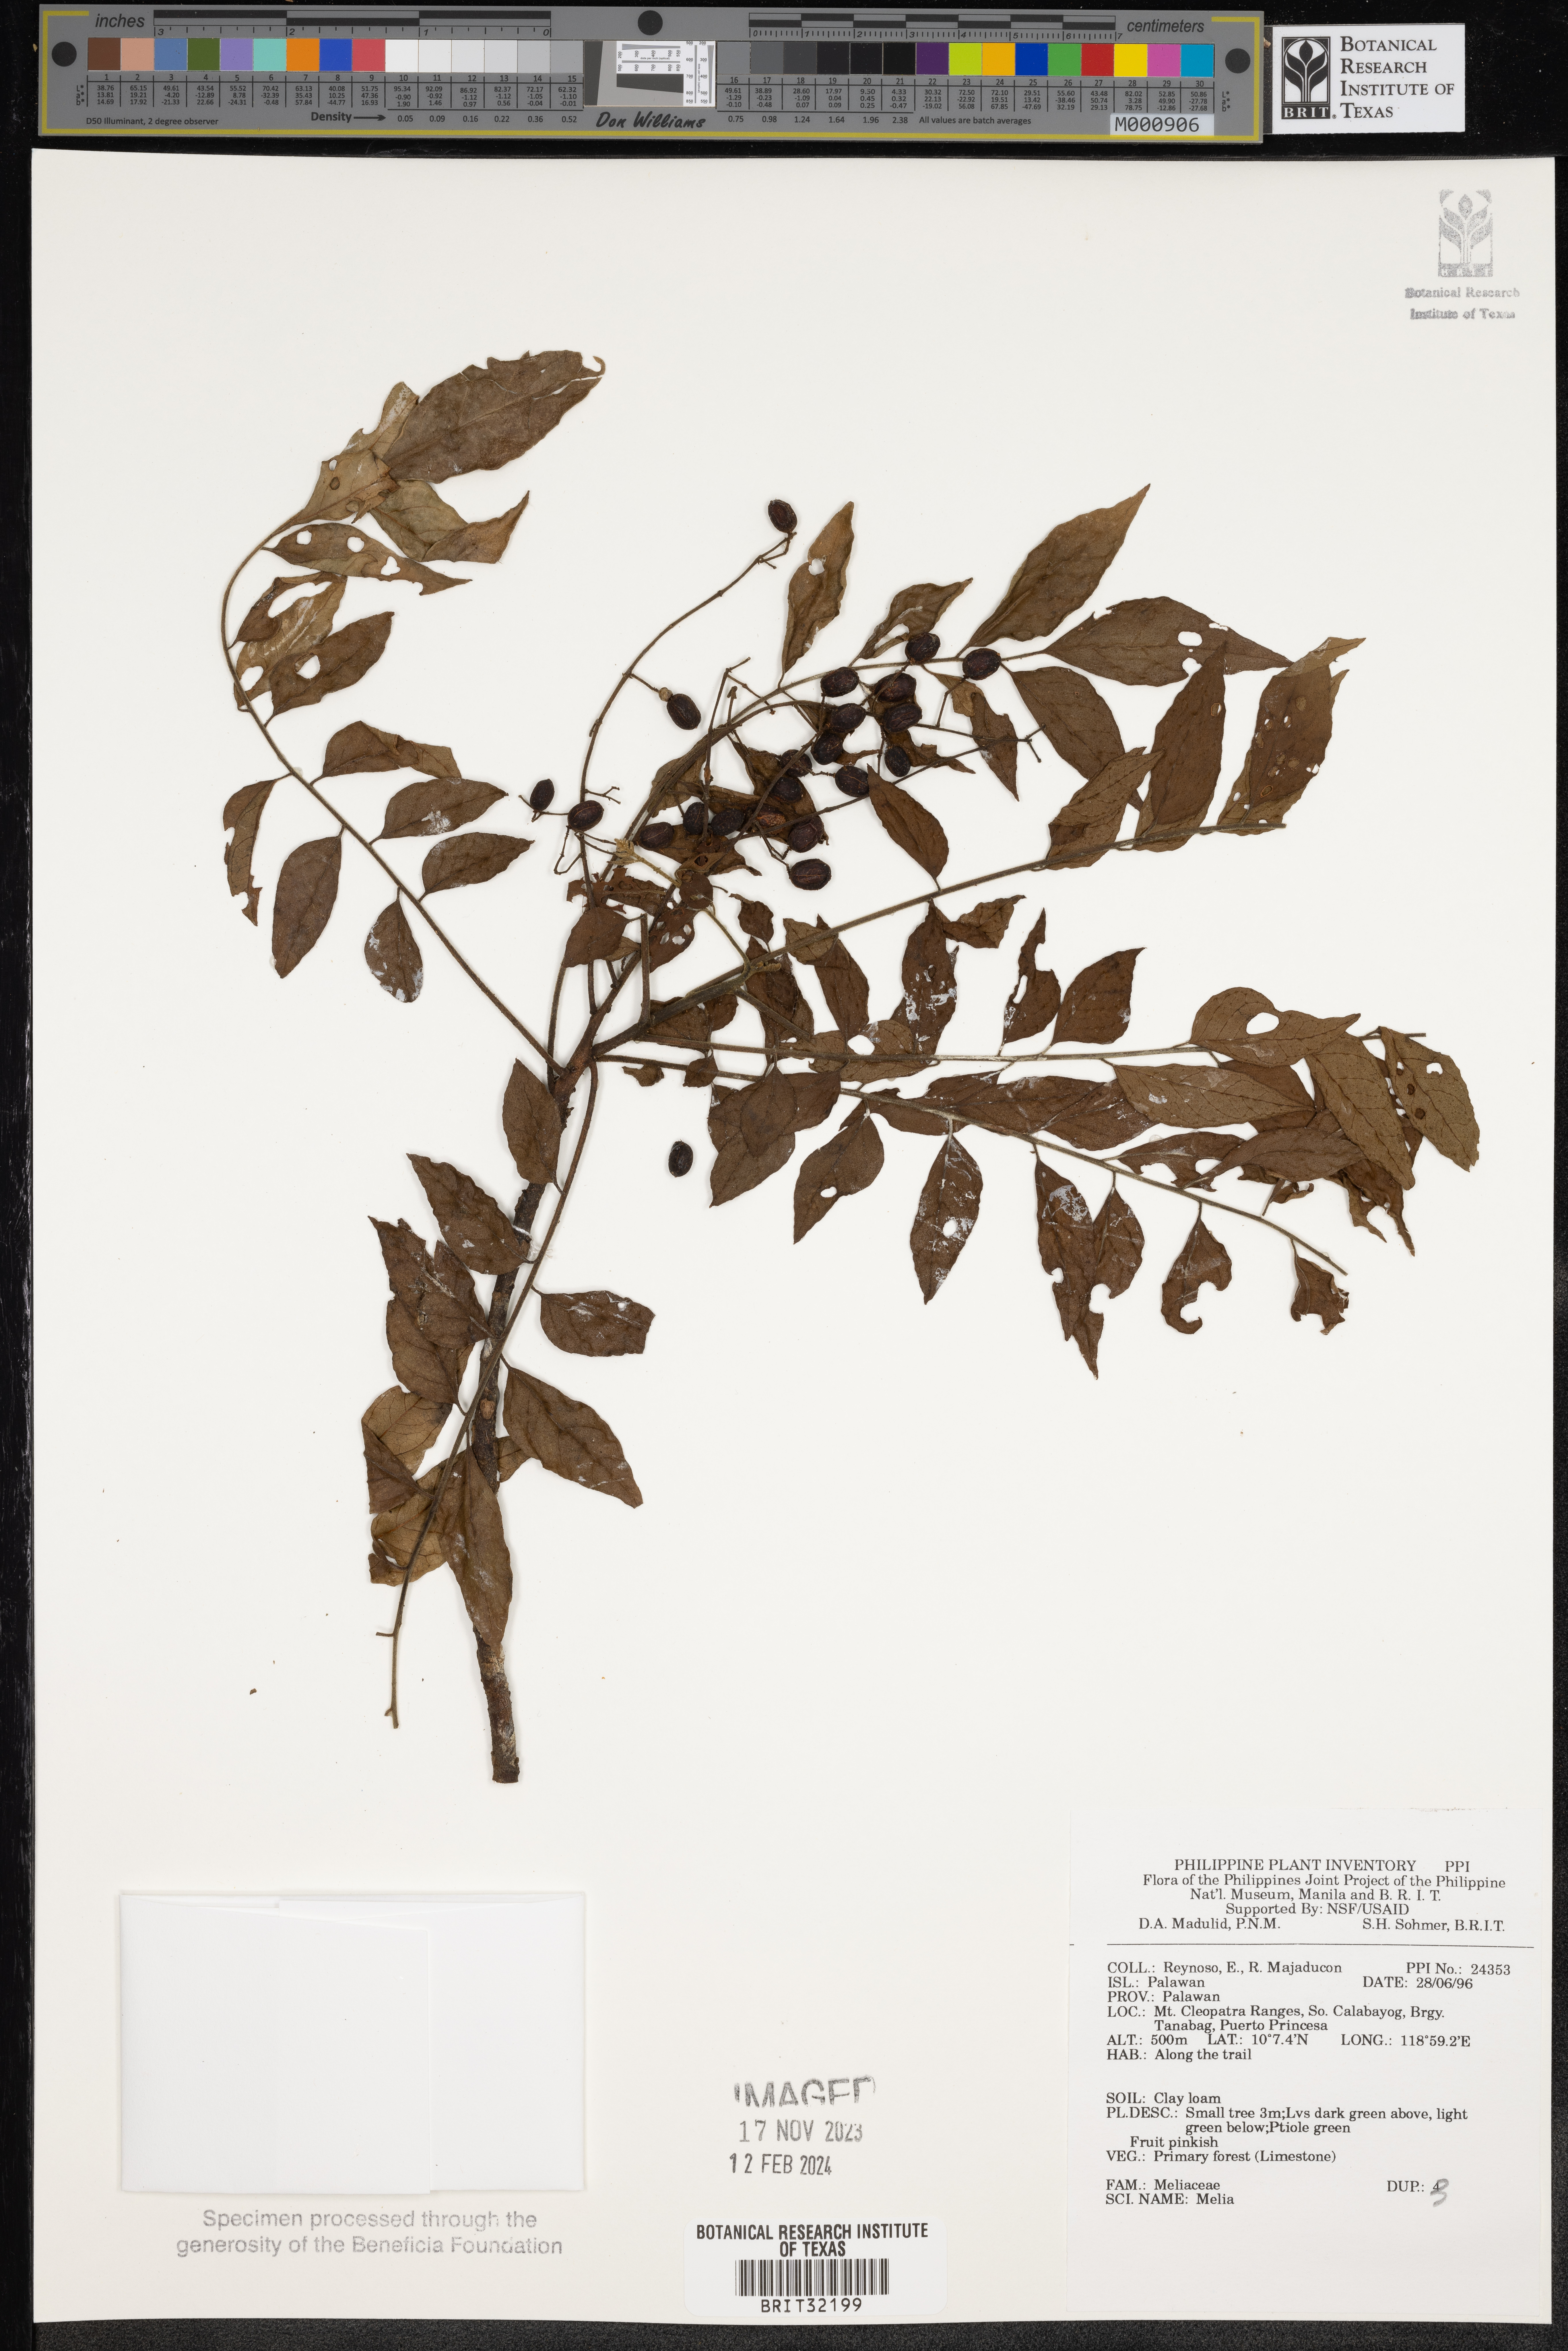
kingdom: Plantae
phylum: Tracheophyta
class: Magnoliopsida
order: Sapindales
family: Meliaceae
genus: Melia
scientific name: Melia
